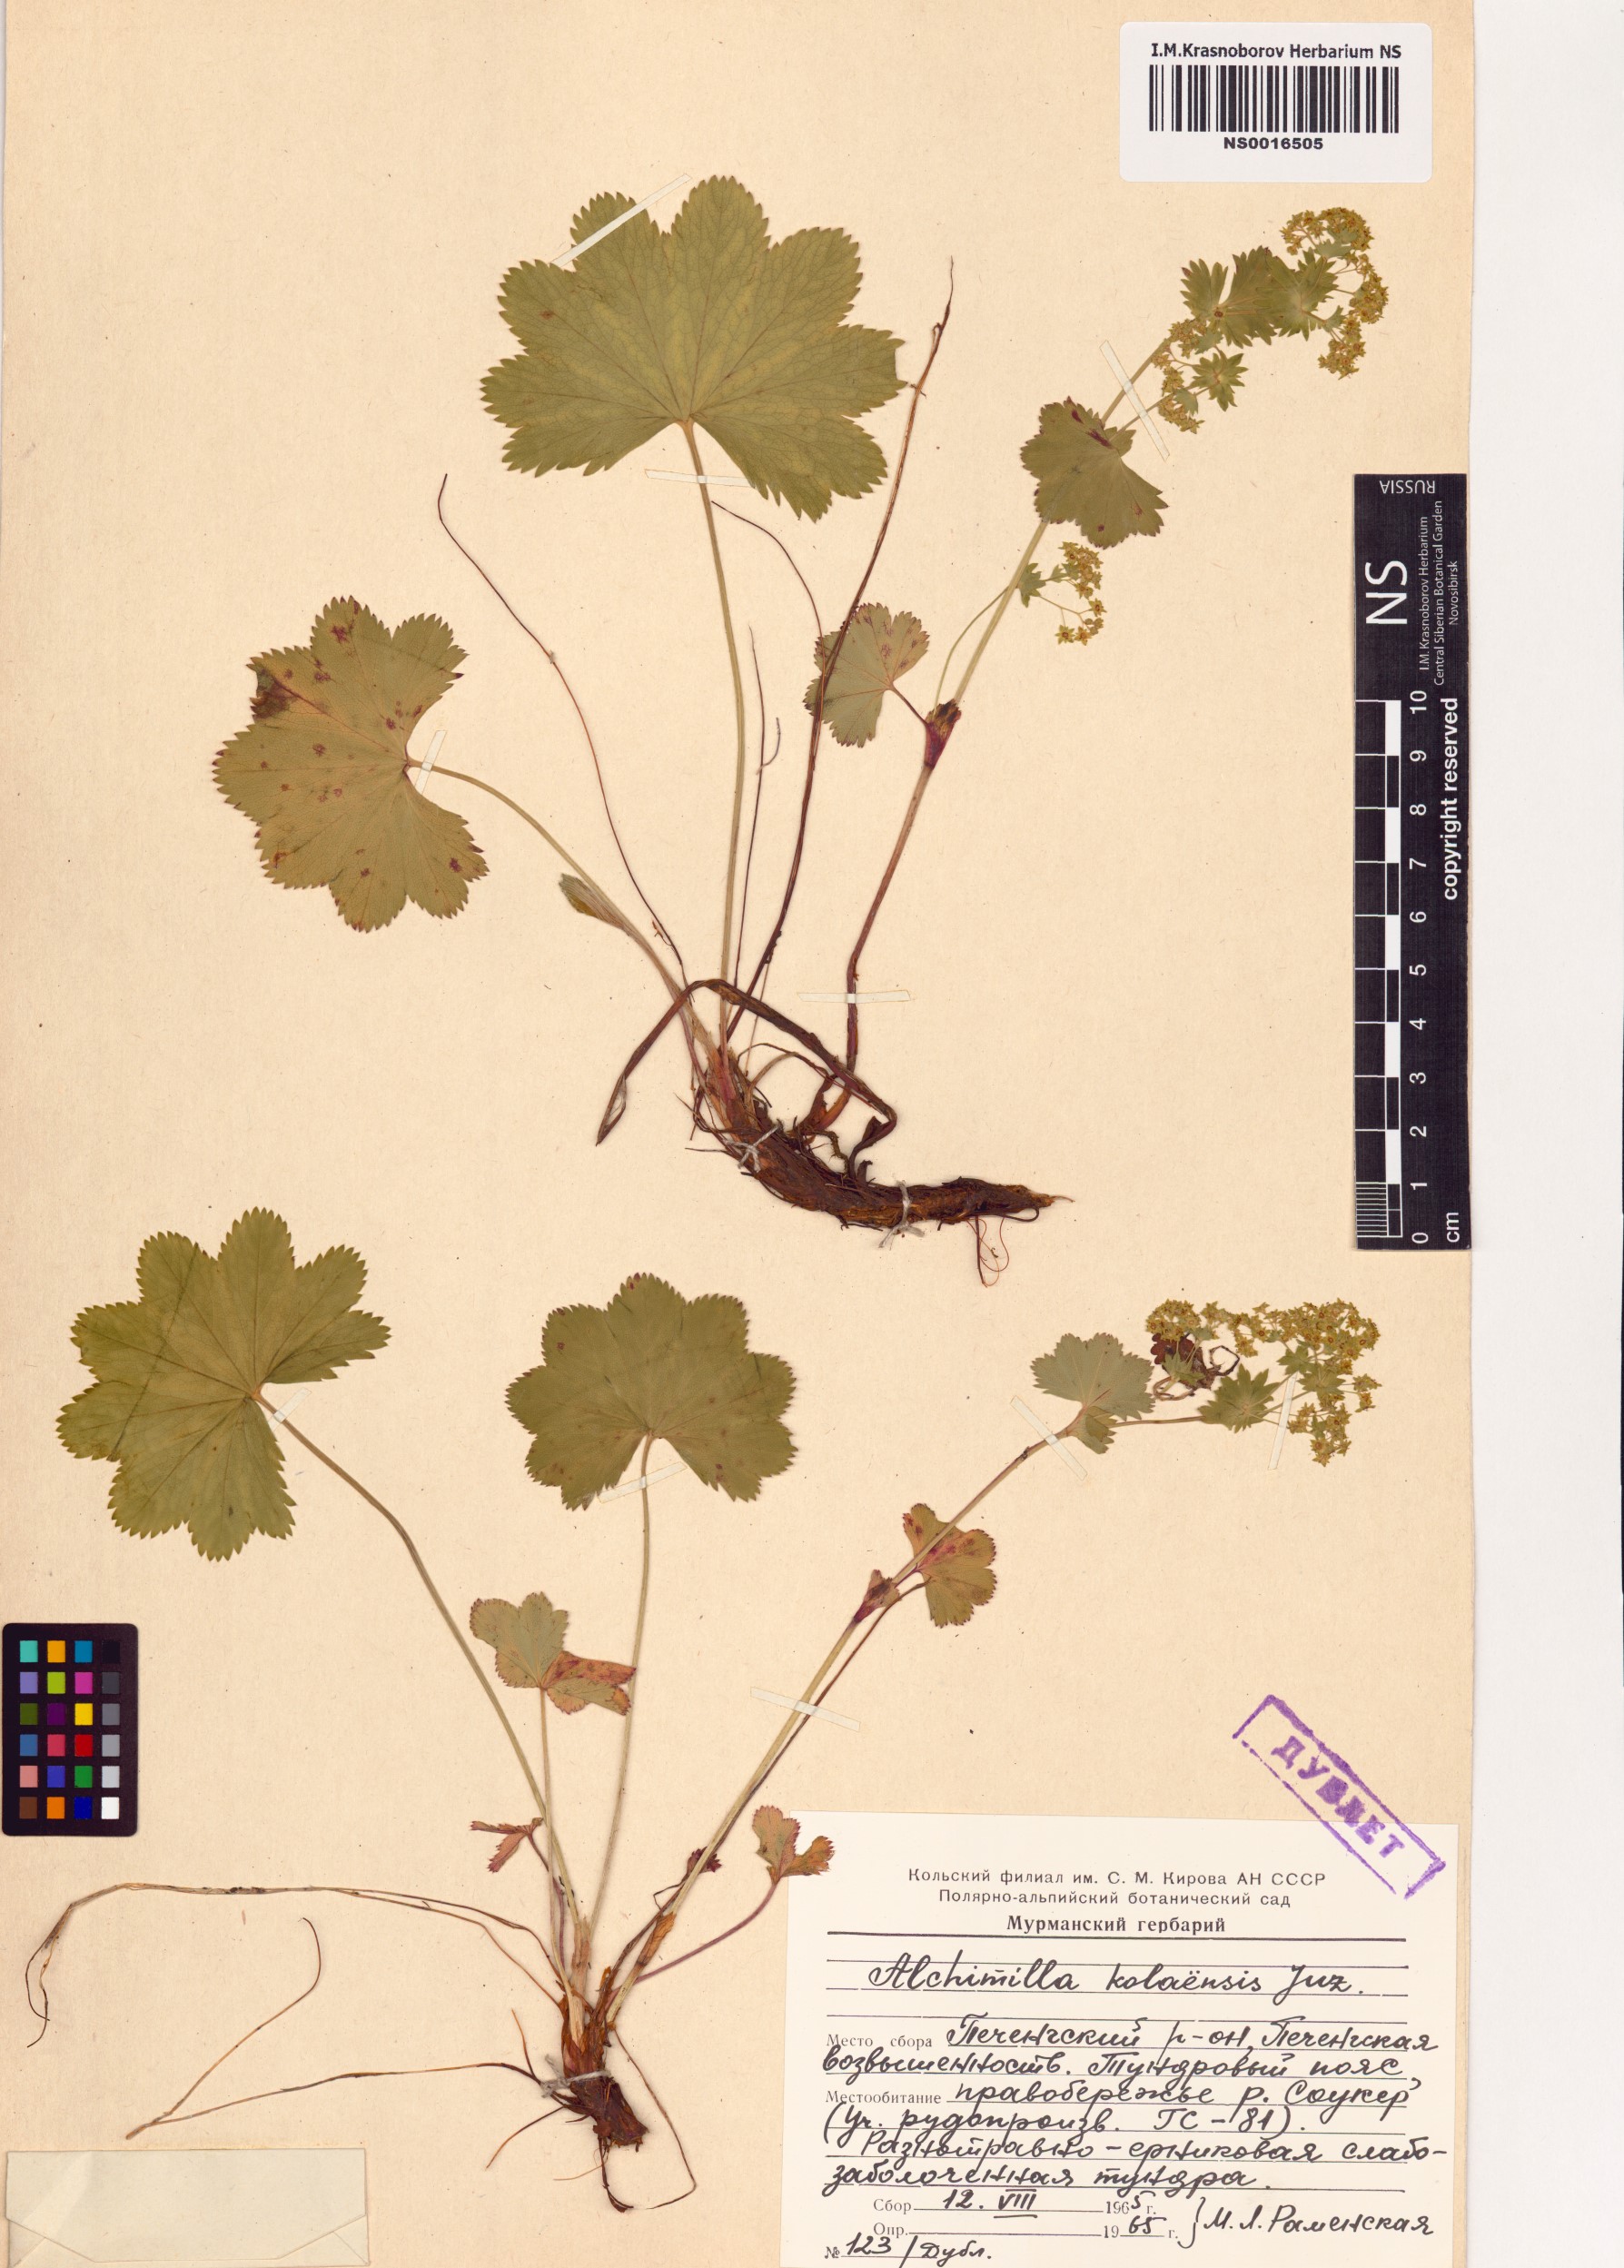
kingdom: Plantae
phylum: Tracheophyta
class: Magnoliopsida
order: Rosales
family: Rosaceae
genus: Alchemilla
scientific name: Alchemilla kolaensis
